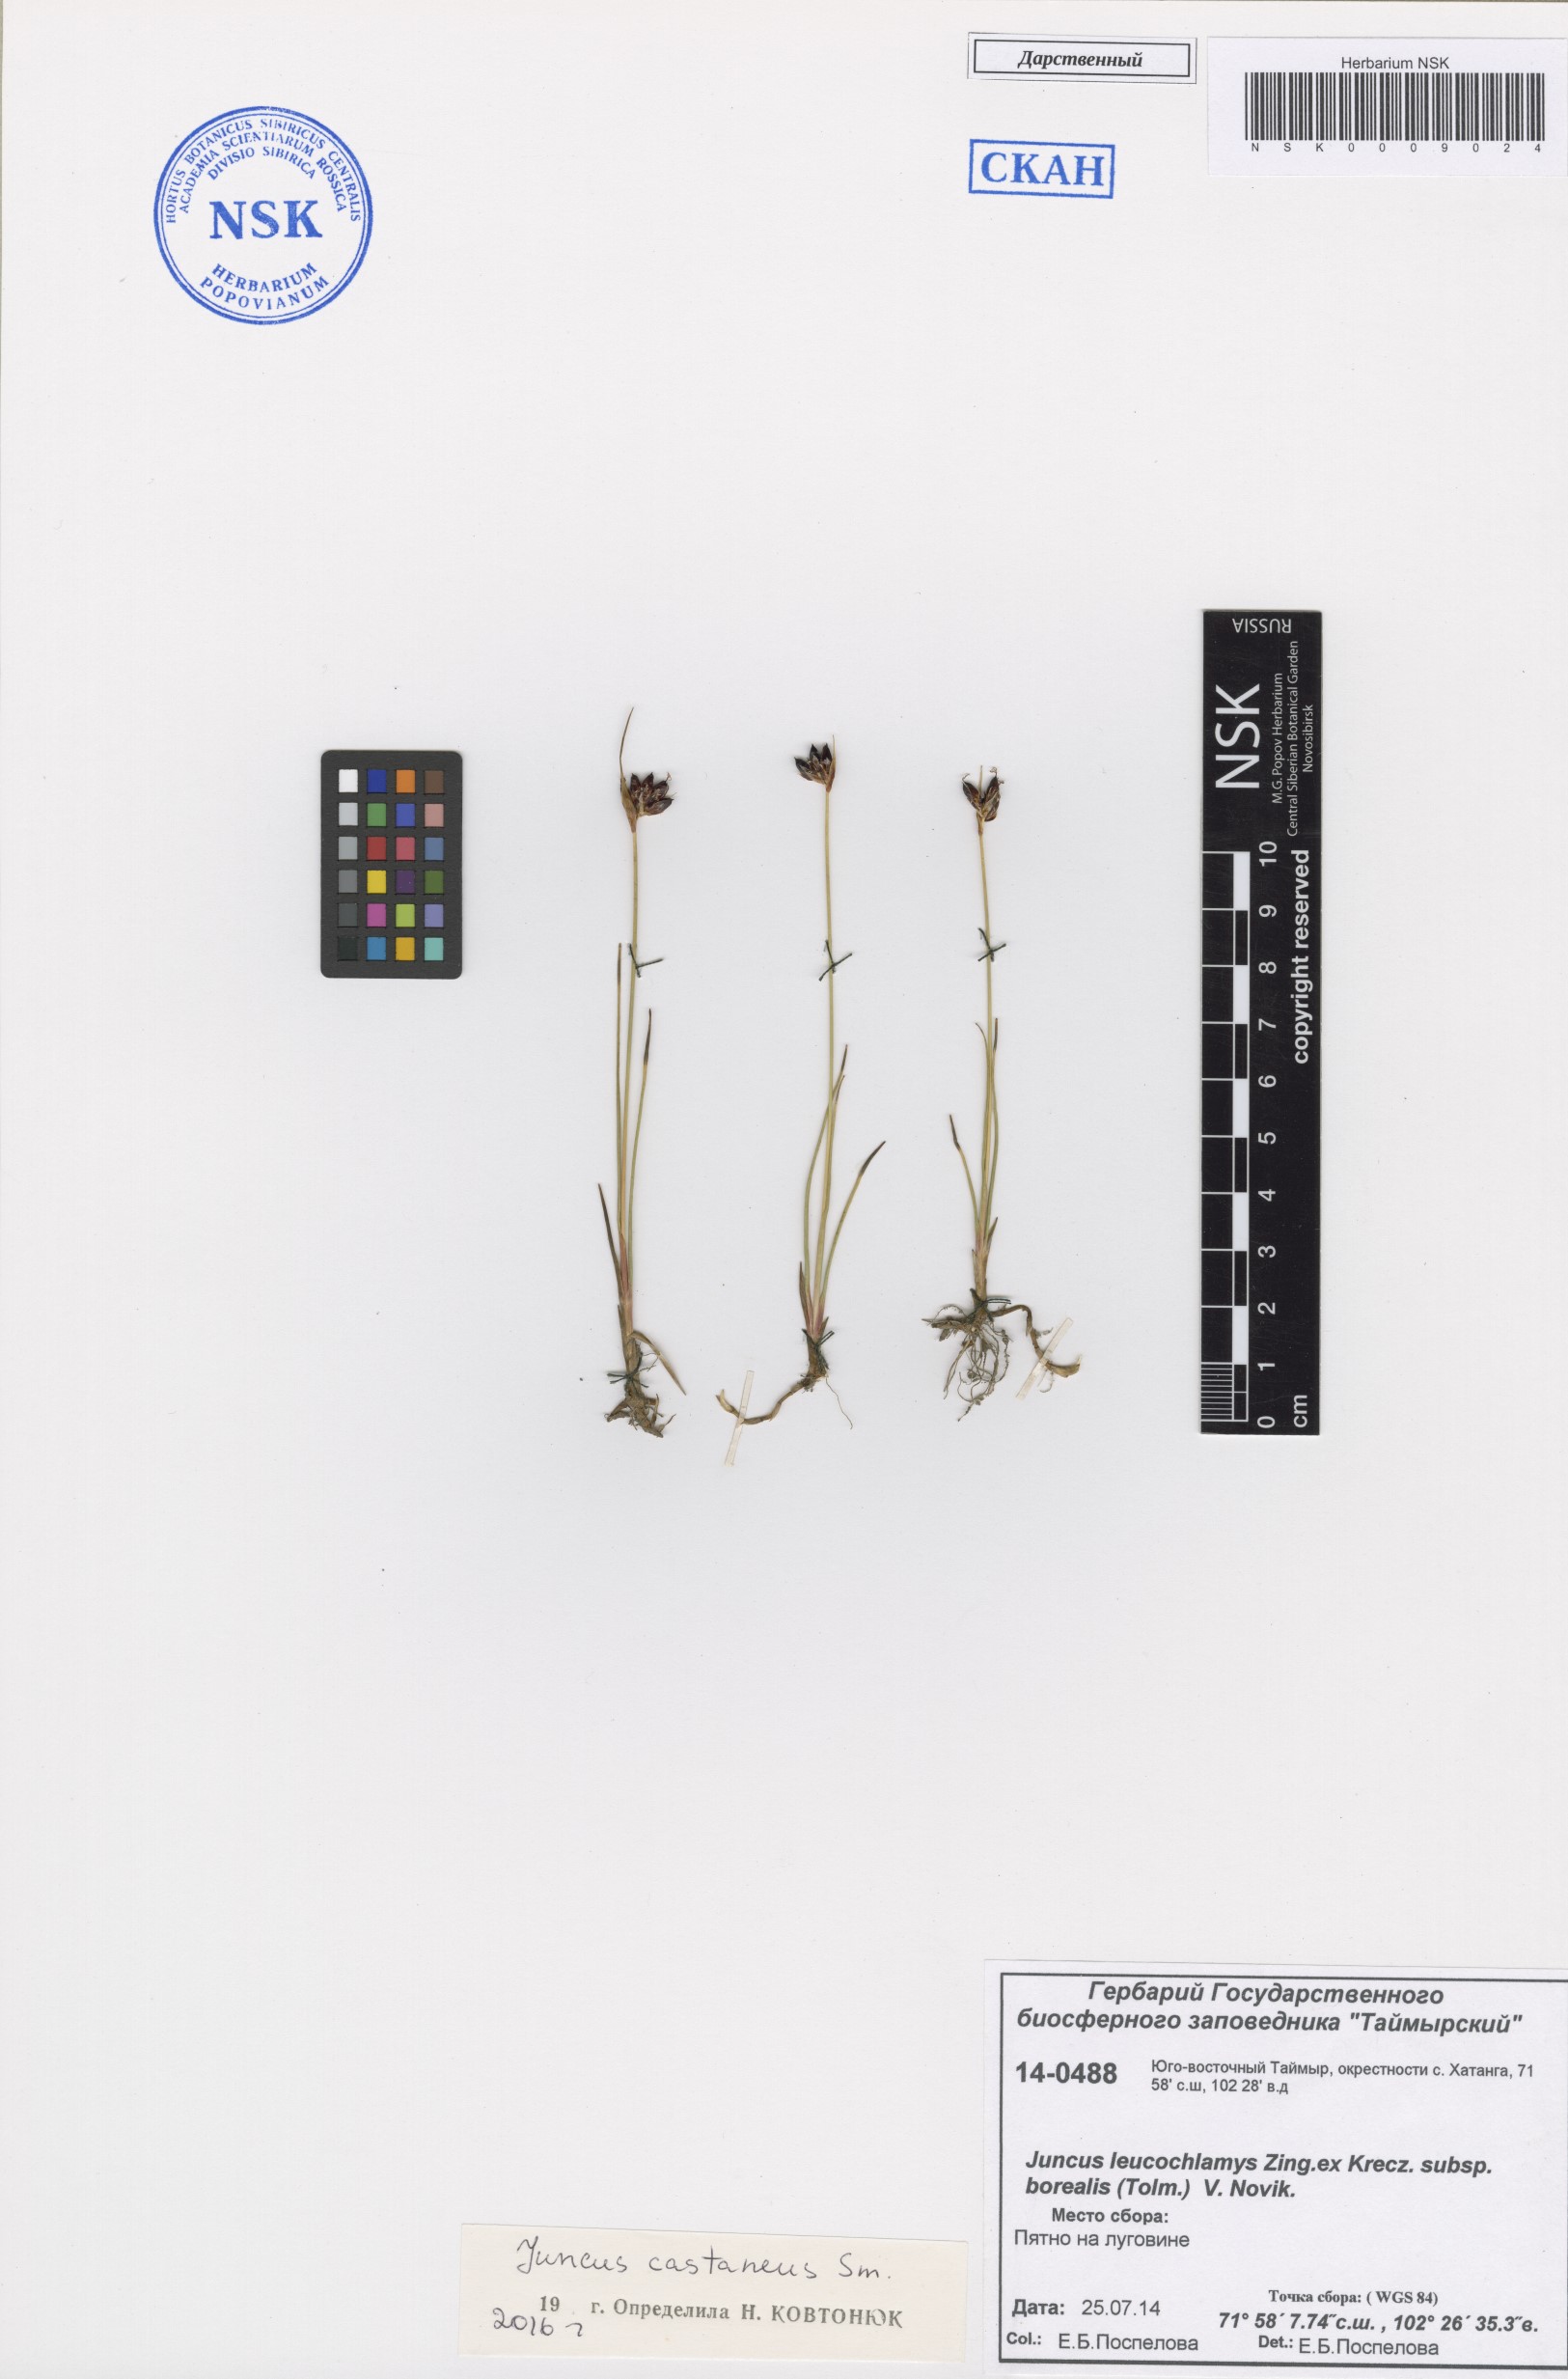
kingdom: Plantae
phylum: Tracheophyta
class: Liliopsida
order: Poales
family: Juncaceae
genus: Juncus
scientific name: Juncus castaneus
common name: Chestnut rush
